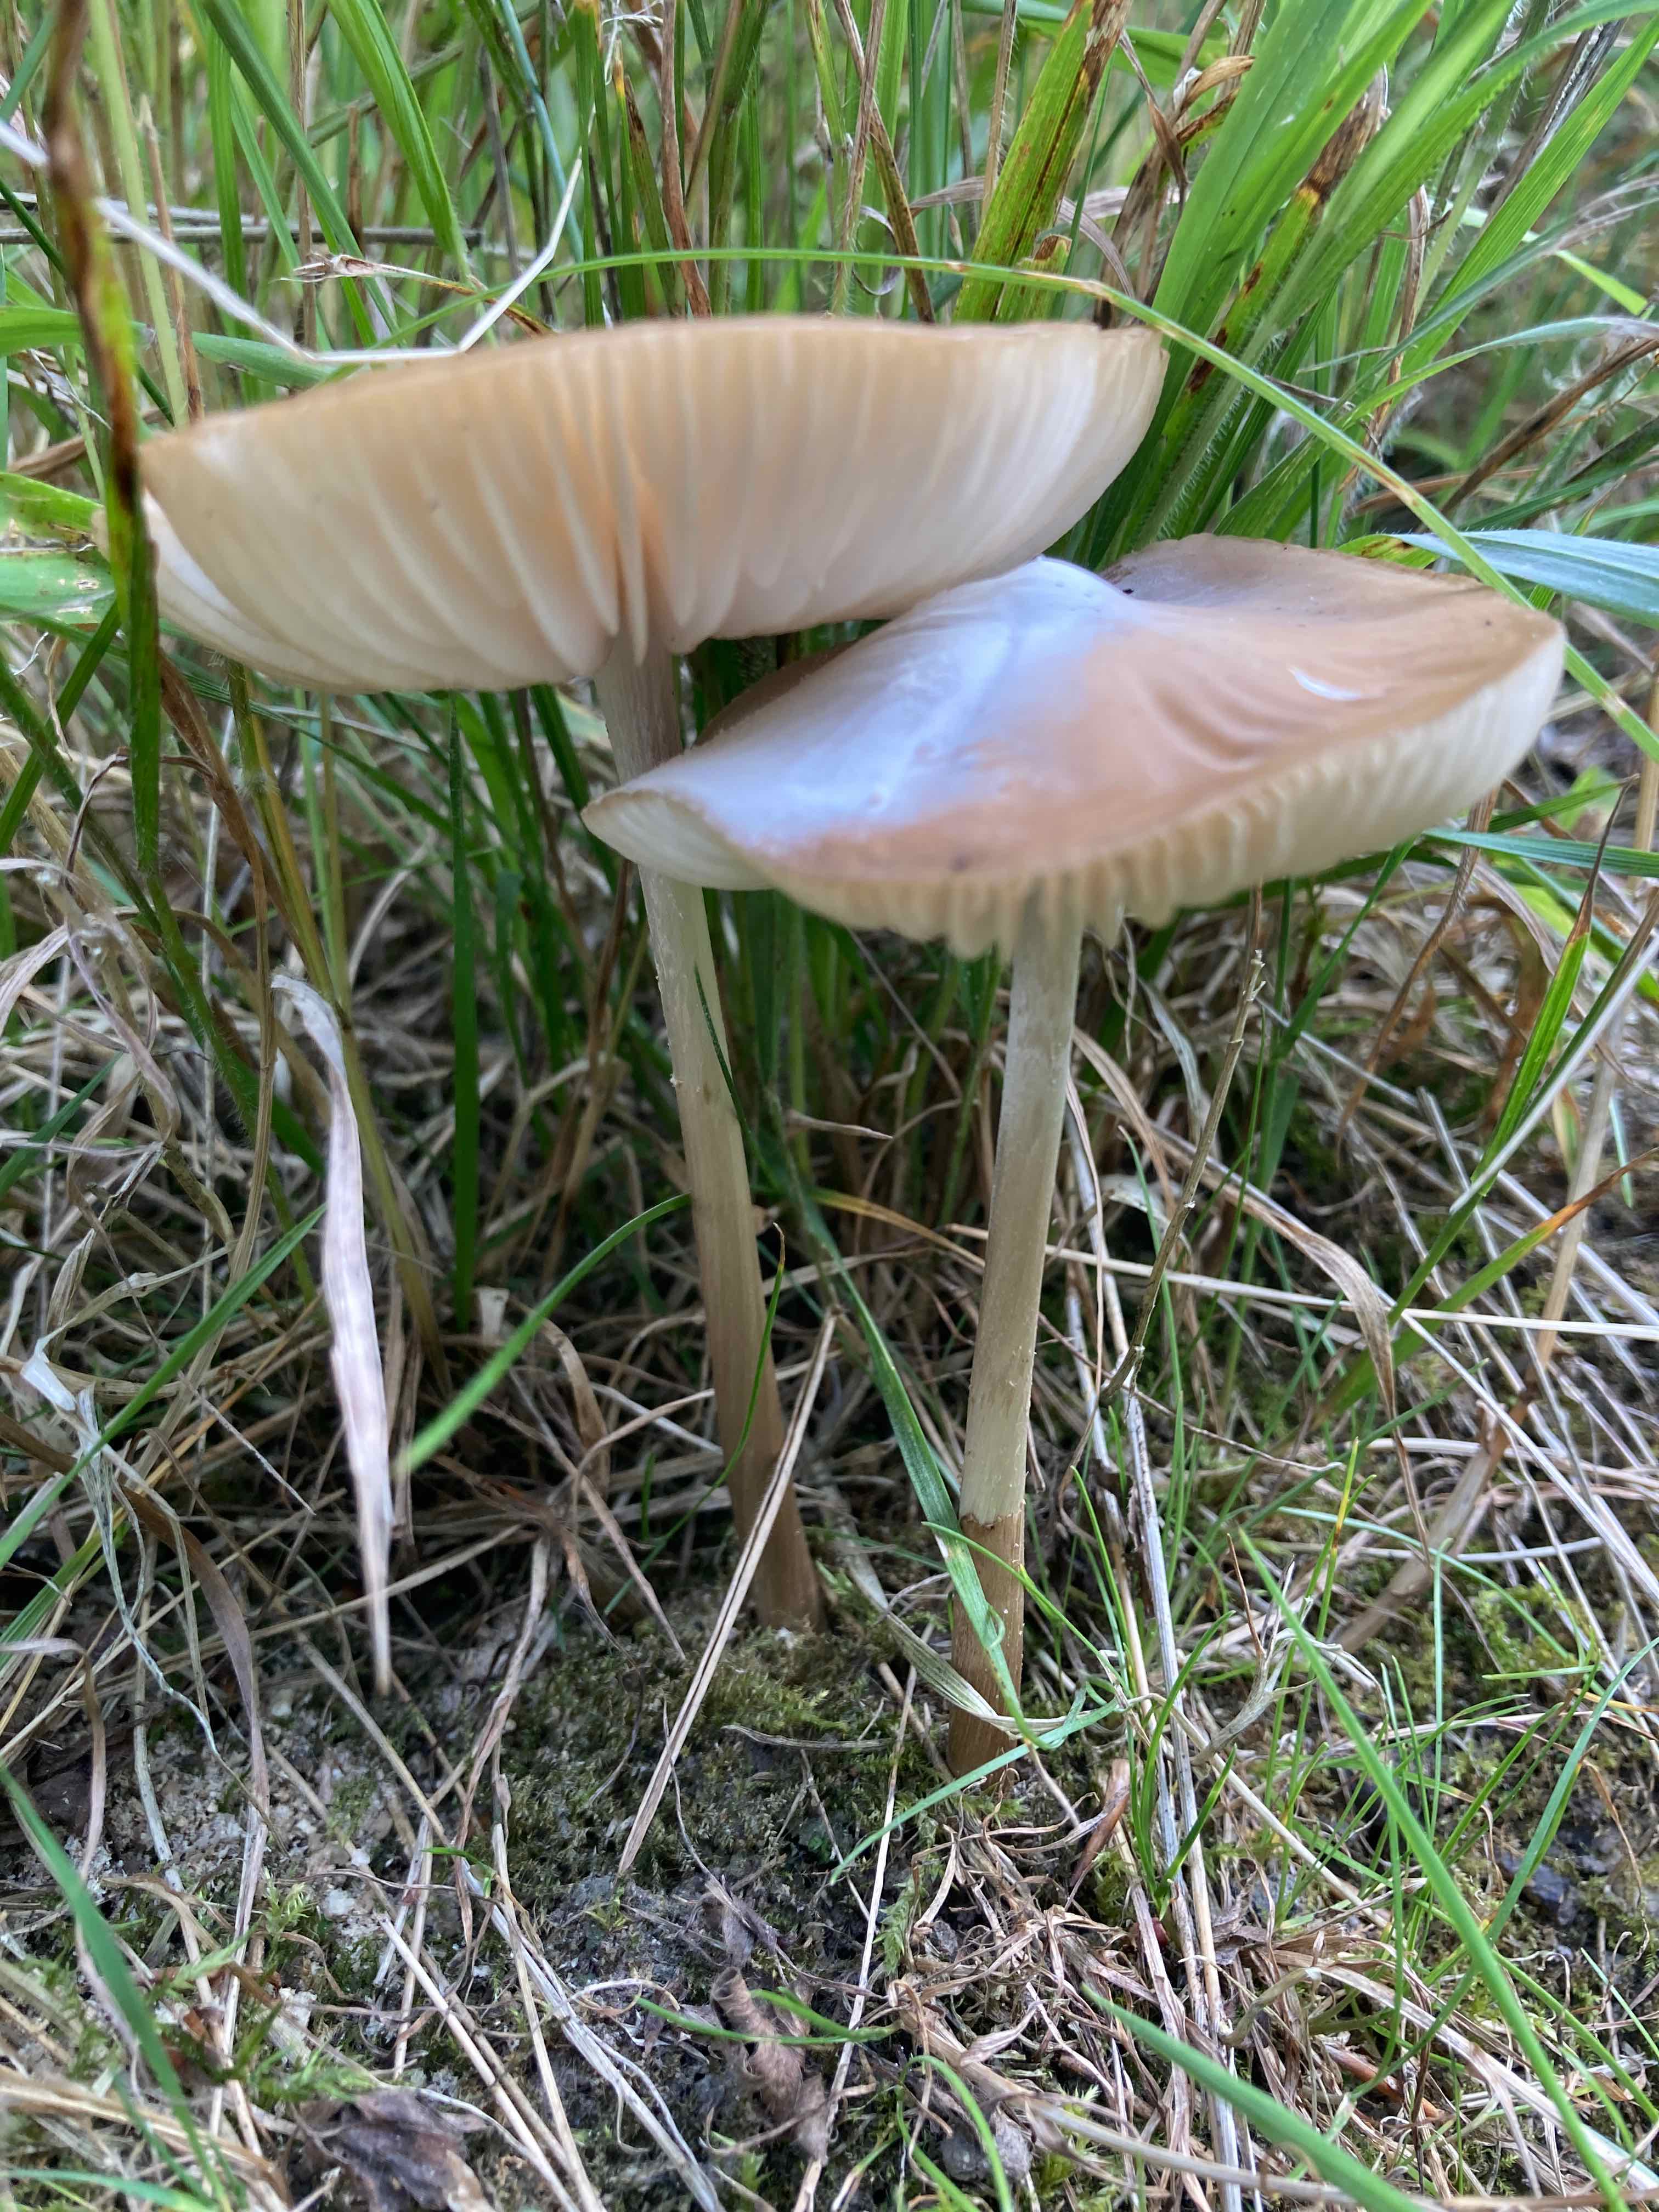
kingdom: Fungi
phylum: Basidiomycota
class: Agaricomycetes
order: Agaricales
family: Physalacriaceae
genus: Hymenopellis
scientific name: Hymenopellis radicata
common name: almindelig pælerodshat
